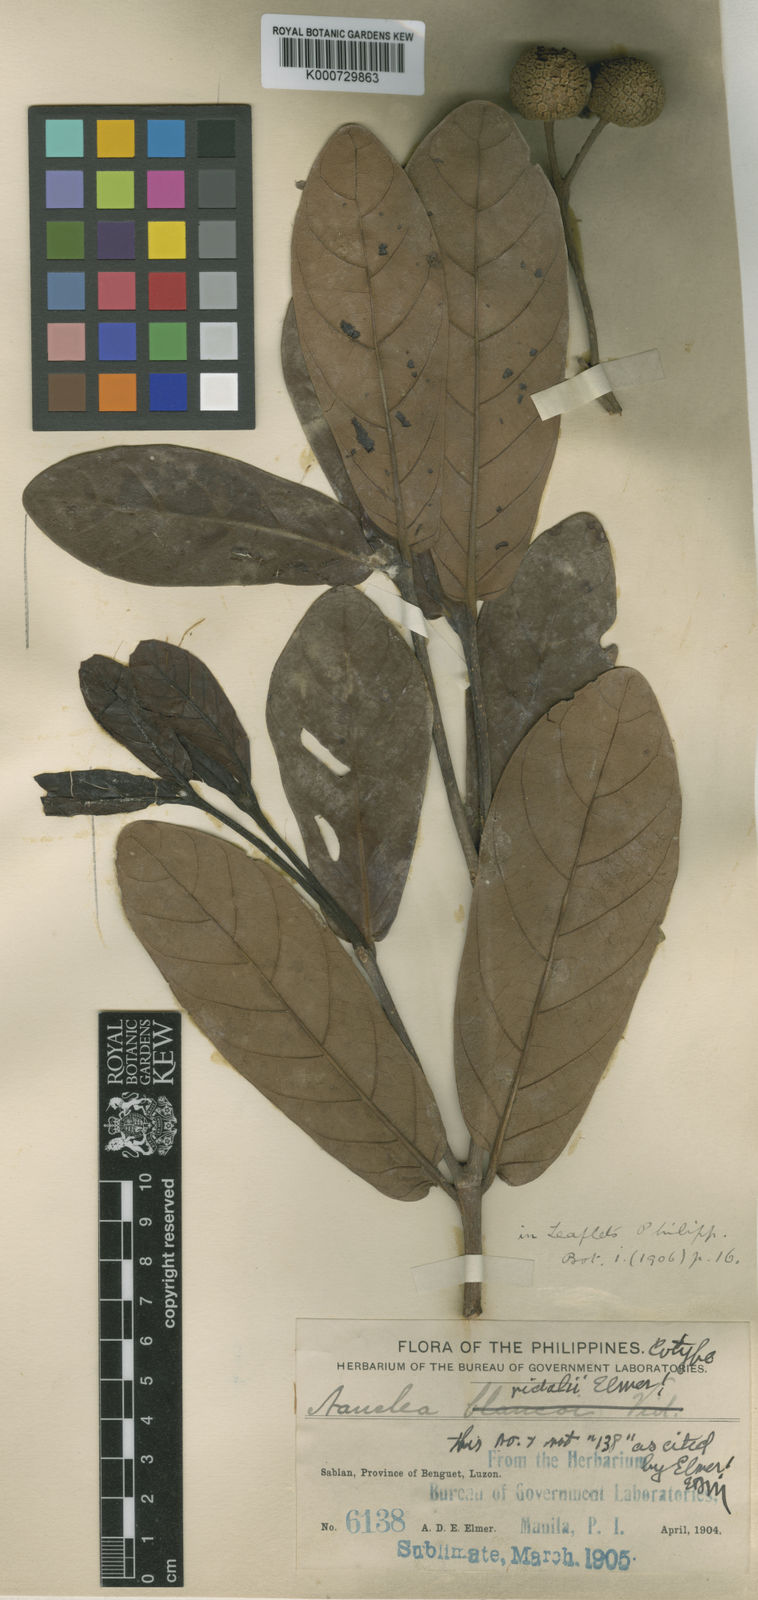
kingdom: Plantae
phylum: Tracheophyta
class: Magnoliopsida
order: Gentianales
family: Rubiaceae
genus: Neonauclea
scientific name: Neonauclea bartlingii
